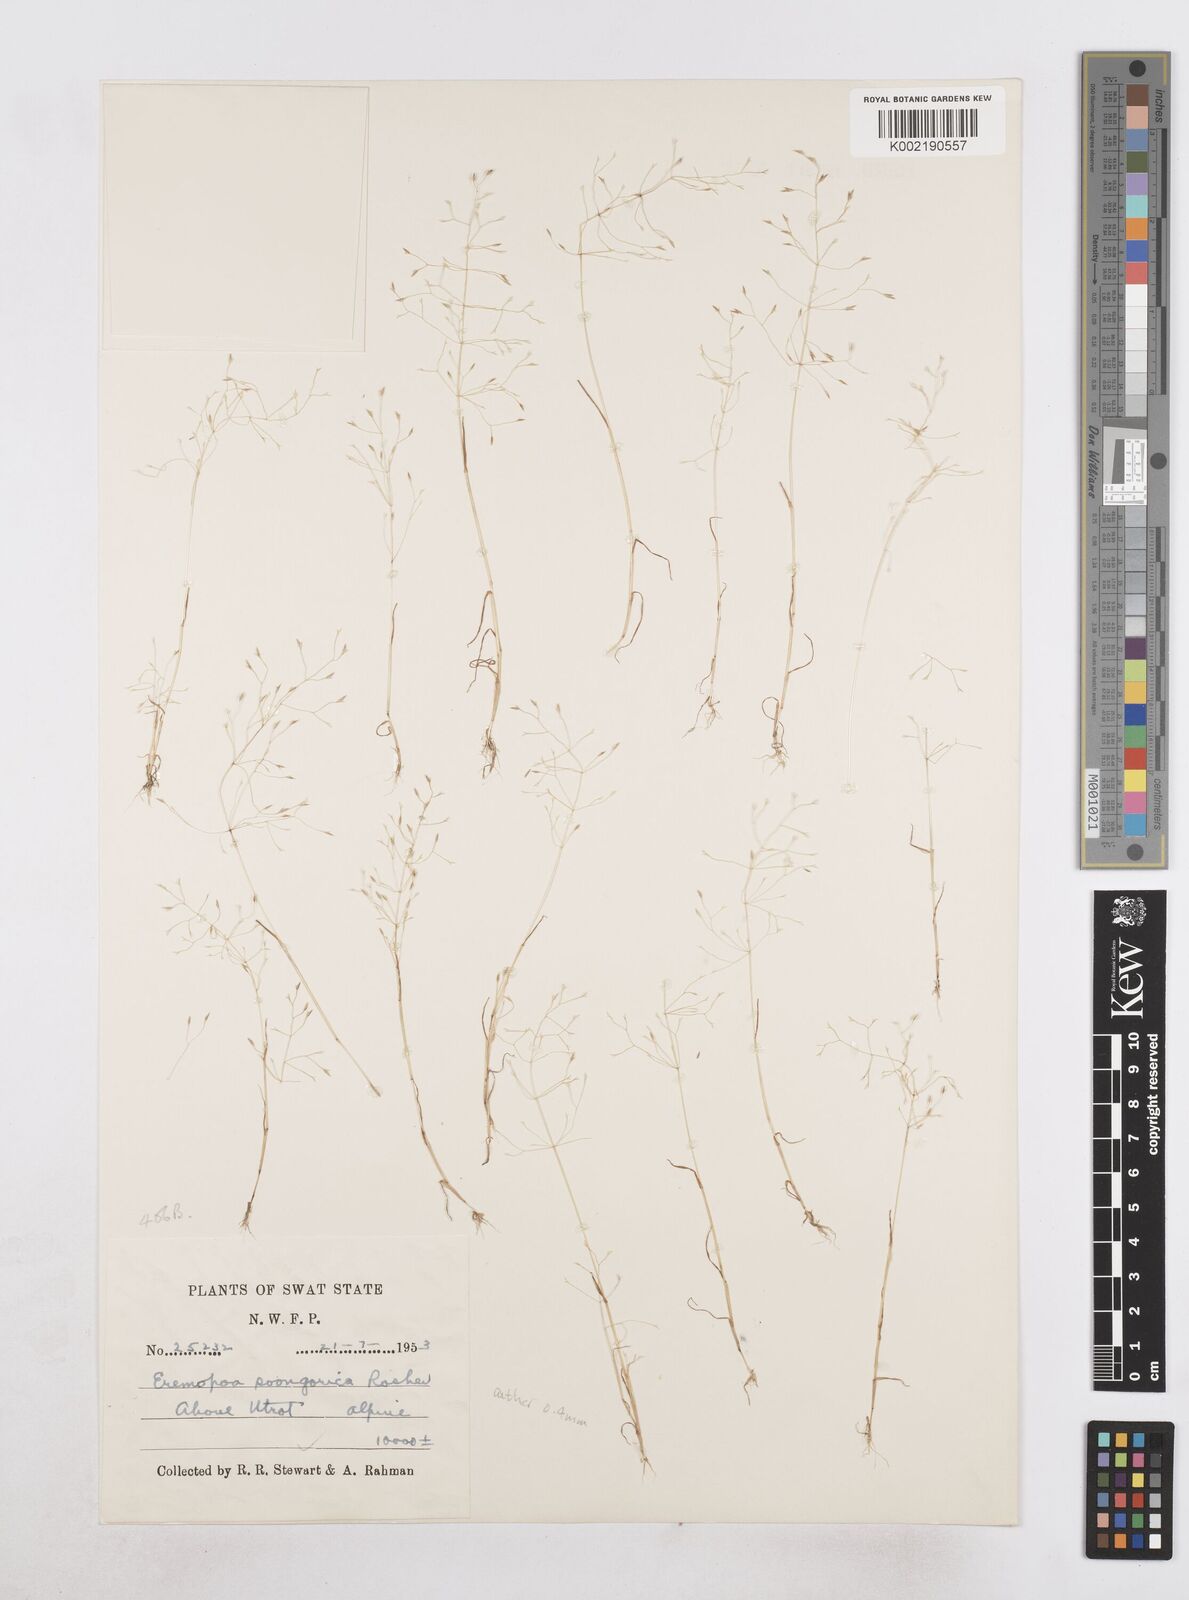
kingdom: Plantae
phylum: Tracheophyta
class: Liliopsida
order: Poales
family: Poaceae
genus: Poa
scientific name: Poa diaphora
